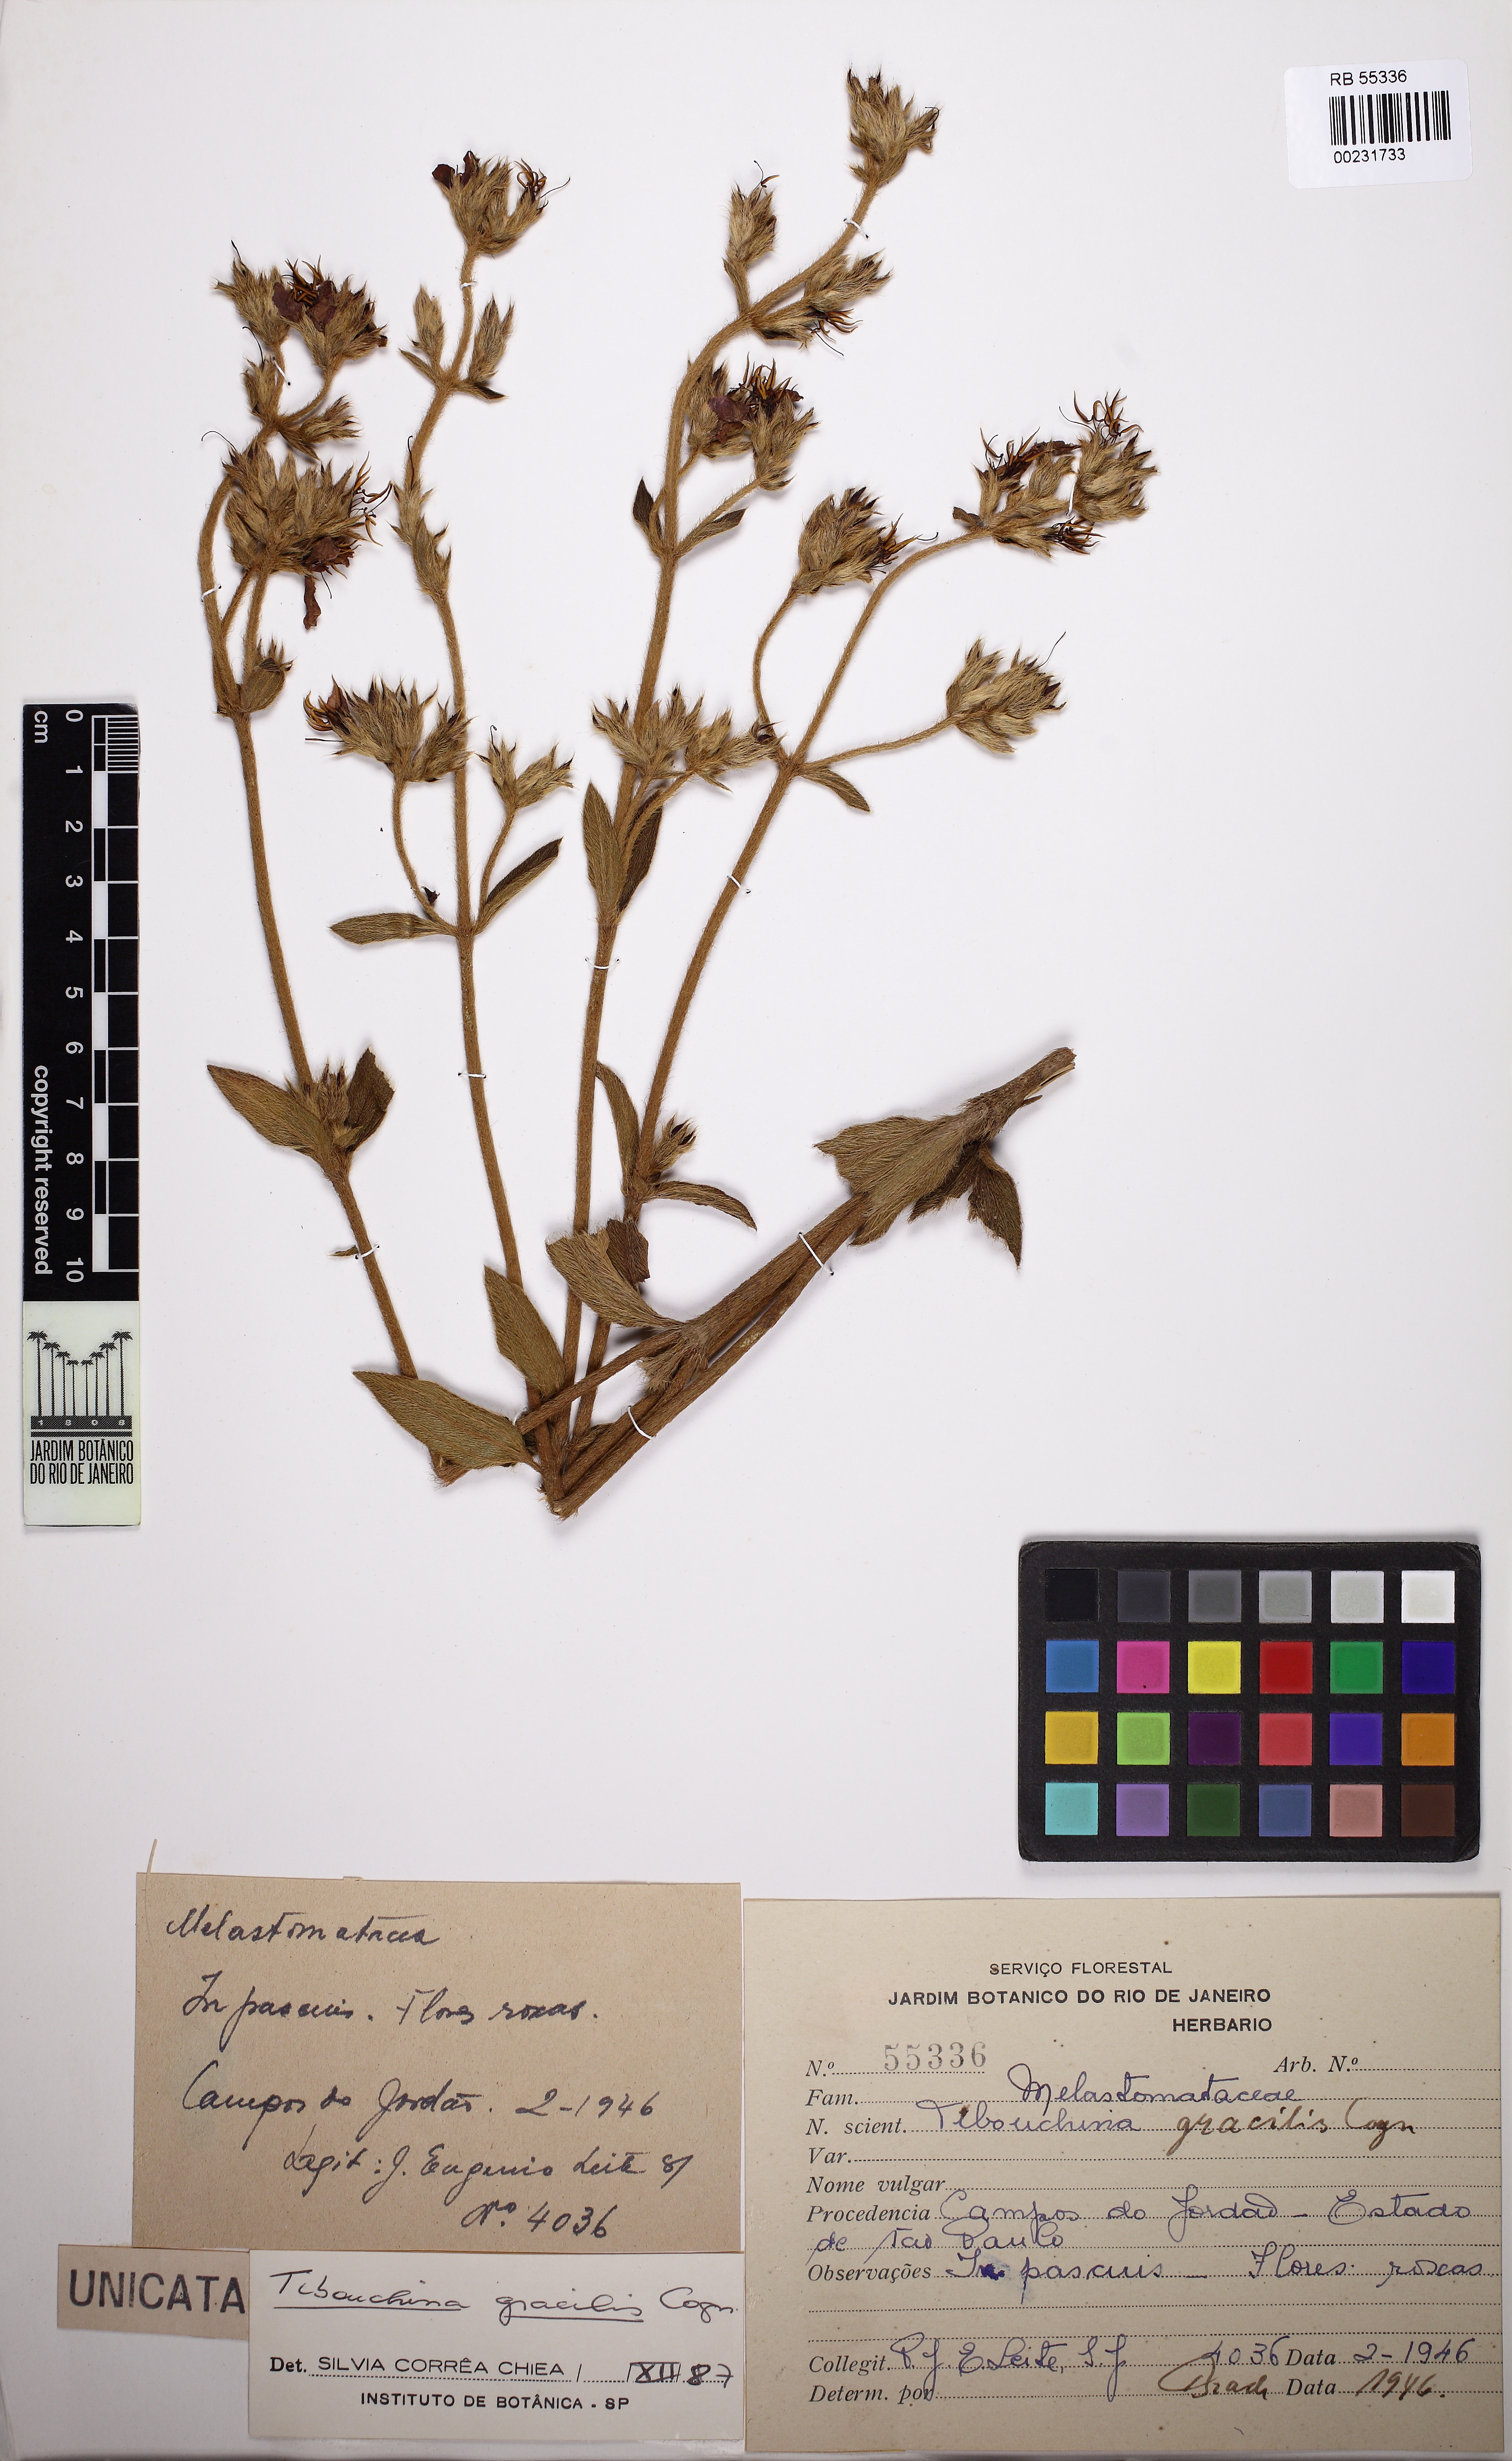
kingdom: Plantae
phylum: Tracheophyta
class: Magnoliopsida
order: Myrtales
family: Melastomataceae
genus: Chaetogastra
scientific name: Chaetogastra gracilis
